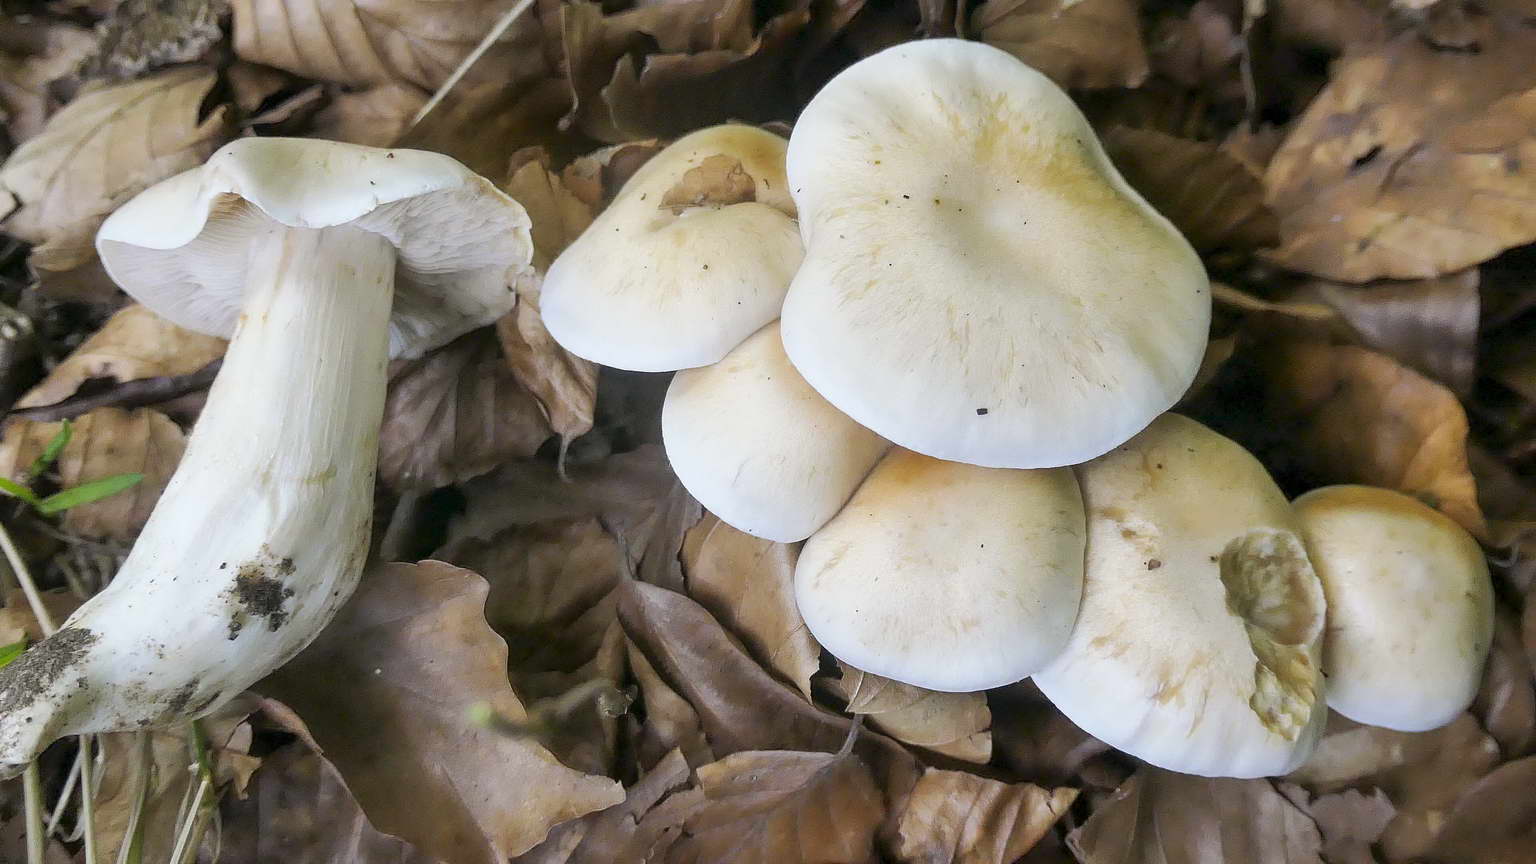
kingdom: Fungi
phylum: Basidiomycota
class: Agaricomycetes
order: Agaricales
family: Cortinariaceae
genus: Thaxterogaster
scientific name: Thaxterogaster barbatus
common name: elfenbens-slørhat
